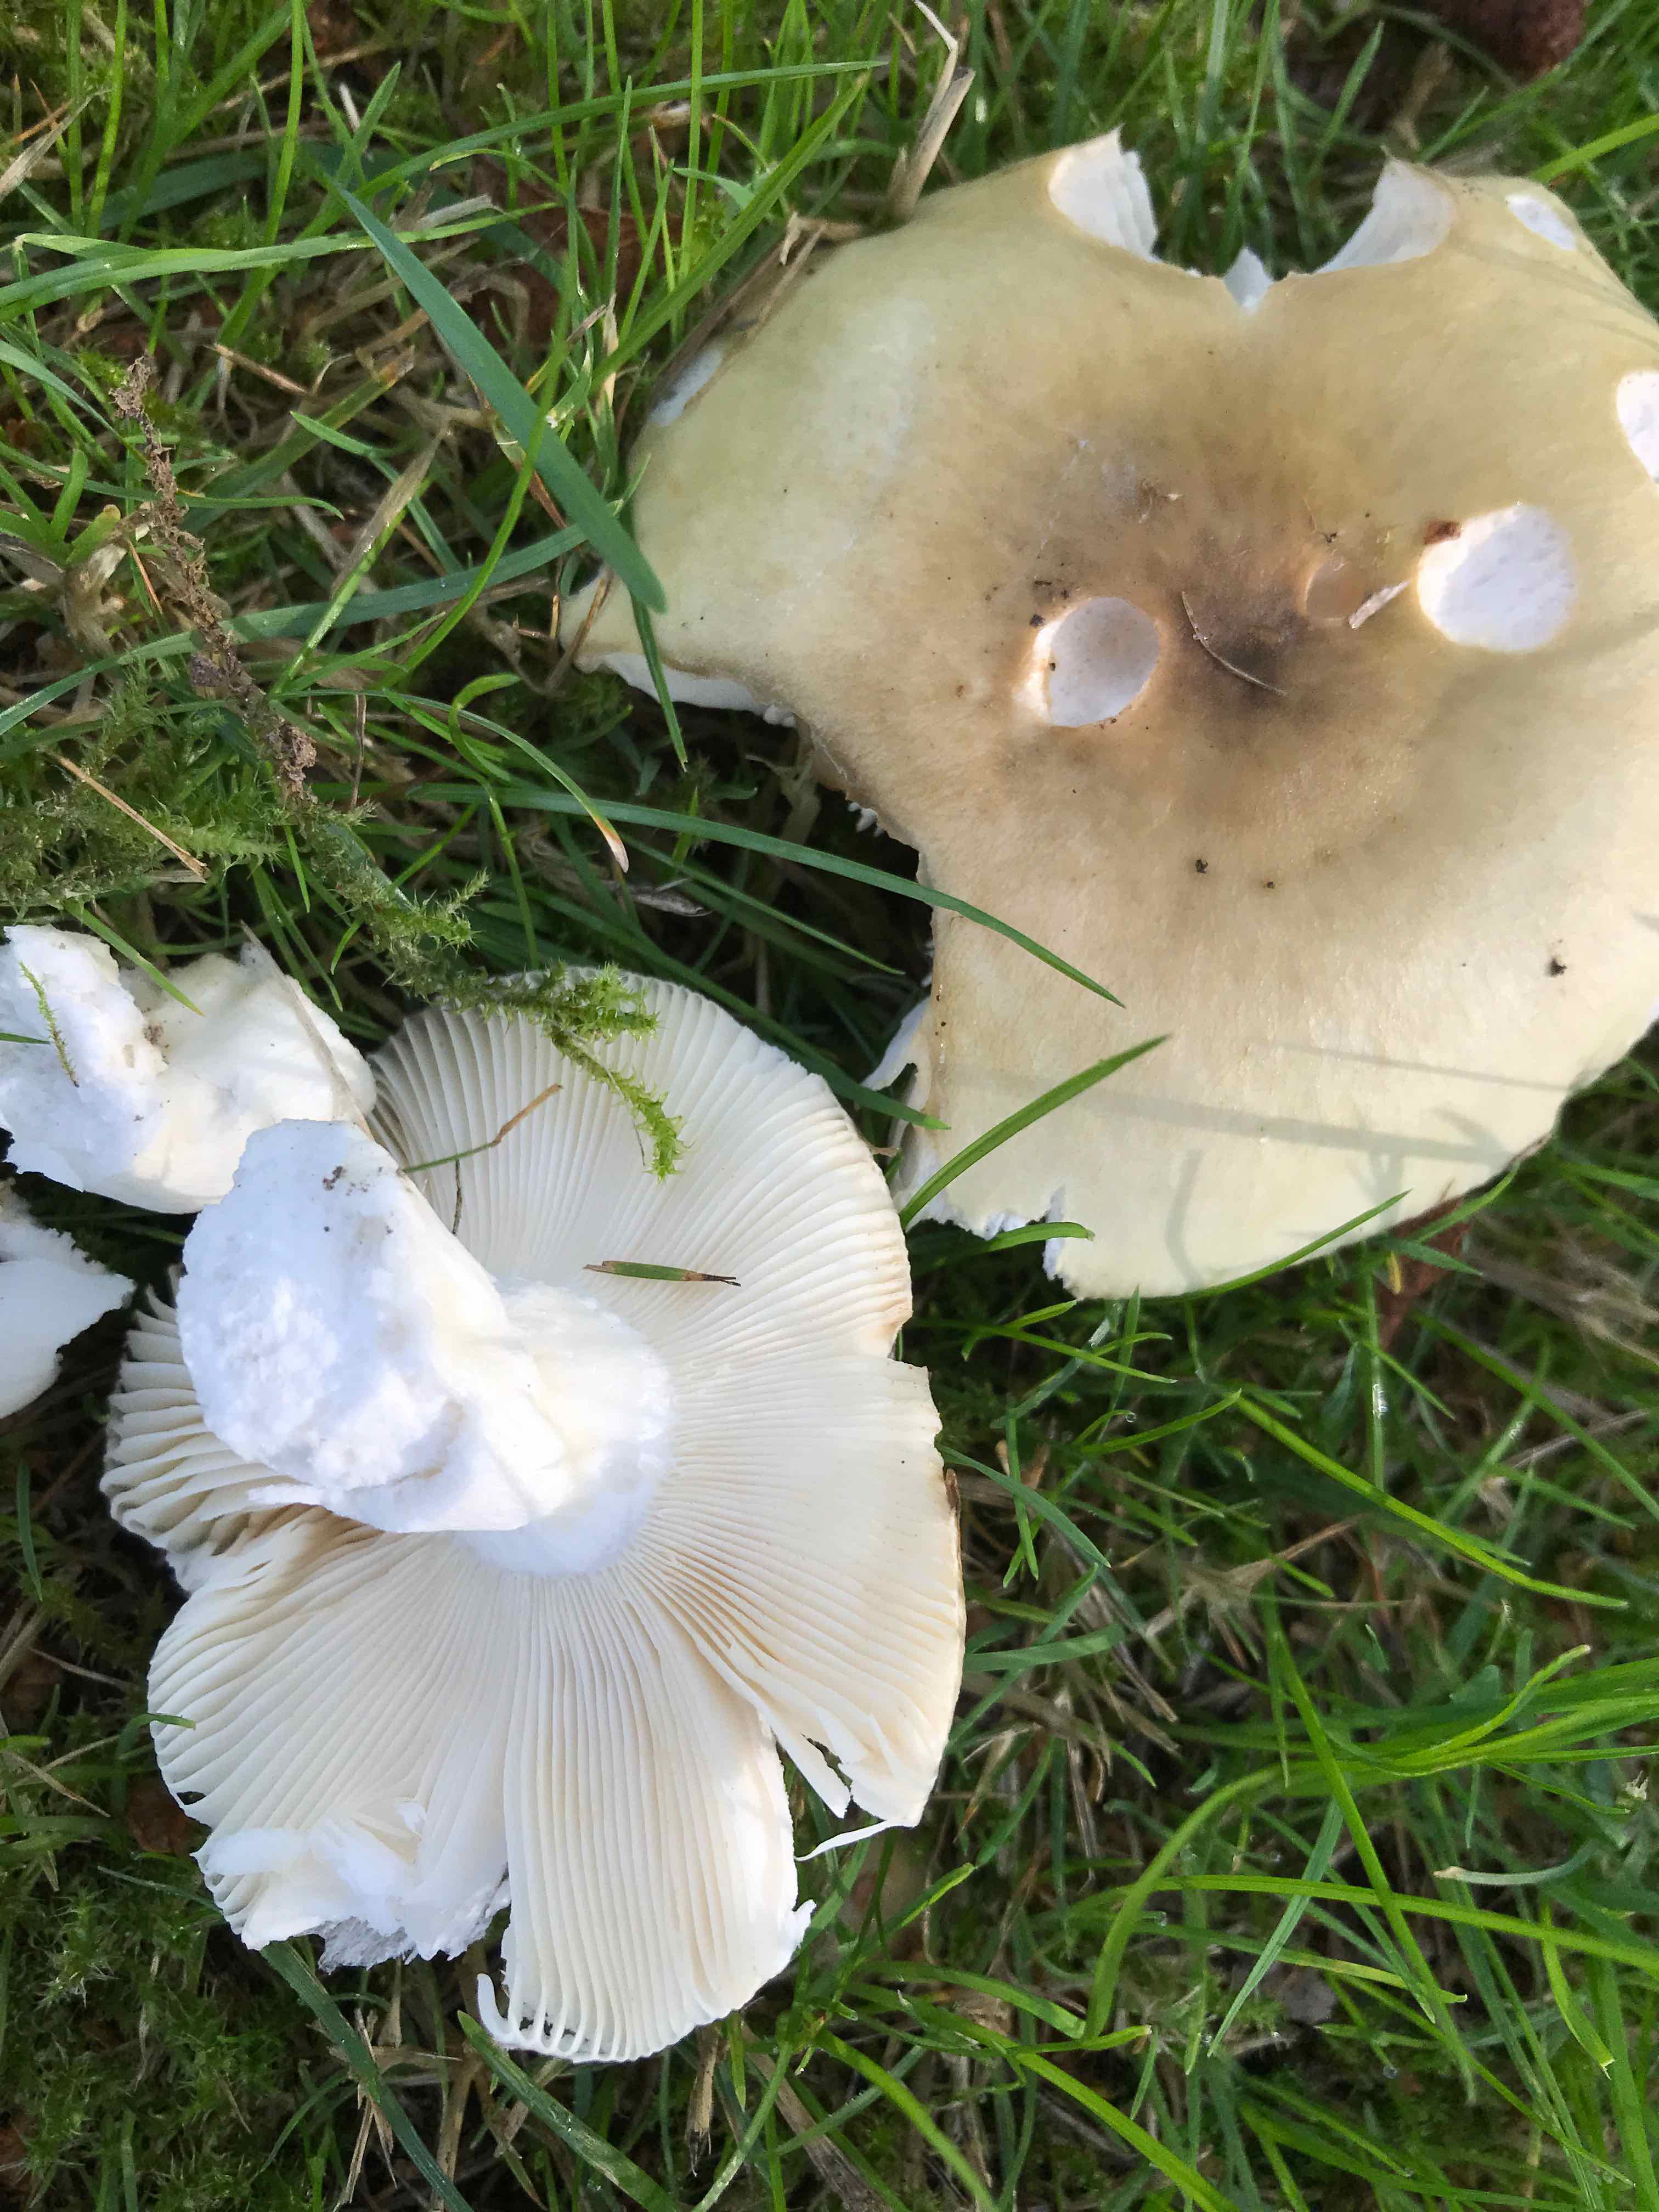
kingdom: Fungi
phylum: Basidiomycota
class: Agaricomycetes
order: Russulales
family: Russulaceae
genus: Russula
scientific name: Russula aeruginea
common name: græsgrøn skørhat
